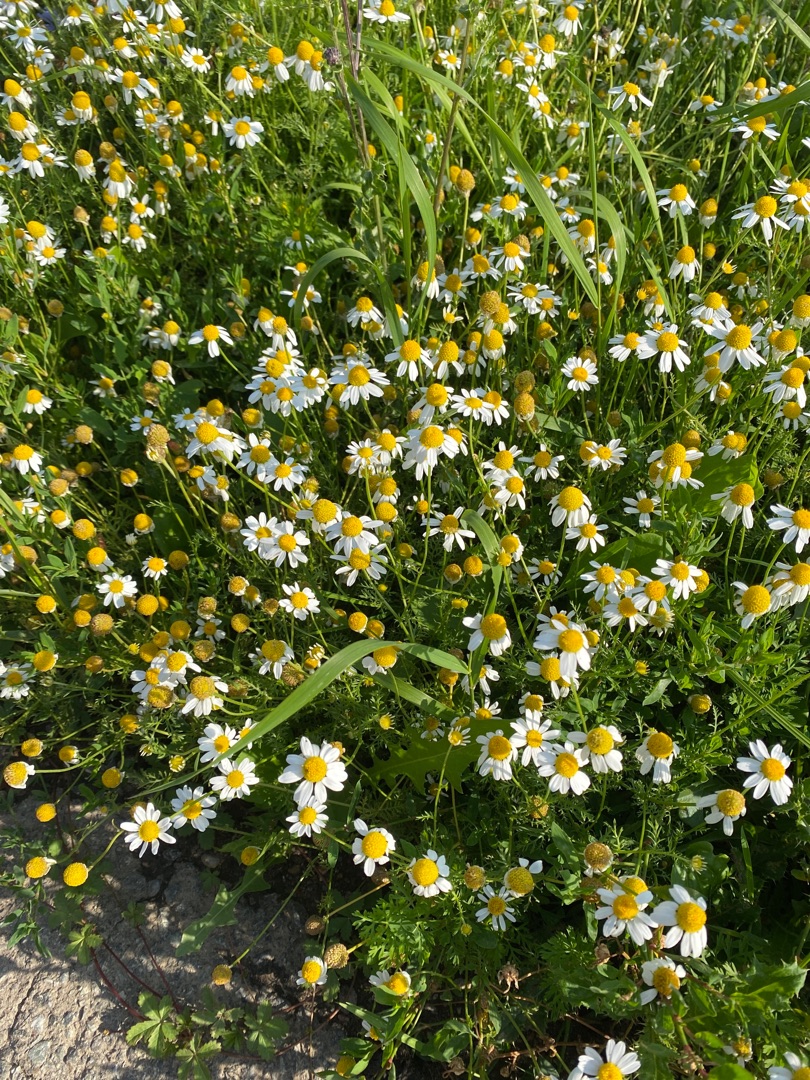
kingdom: Plantae
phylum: Tracheophyta
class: Magnoliopsida
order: Asterales
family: Asteraceae
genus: Anthemis
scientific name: Anthemis arvensis
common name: Ager-gåseurt
